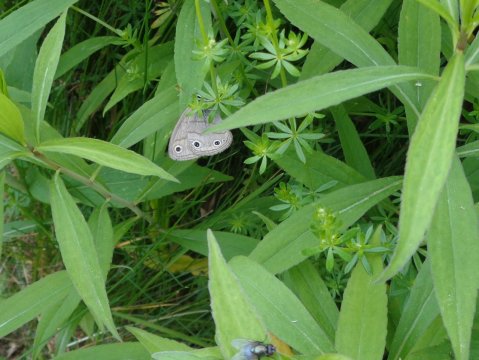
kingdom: Animalia
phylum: Arthropoda
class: Insecta
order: Lepidoptera
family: Nymphalidae
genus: Euptychia
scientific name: Euptychia cymela
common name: Little Wood Satyr
